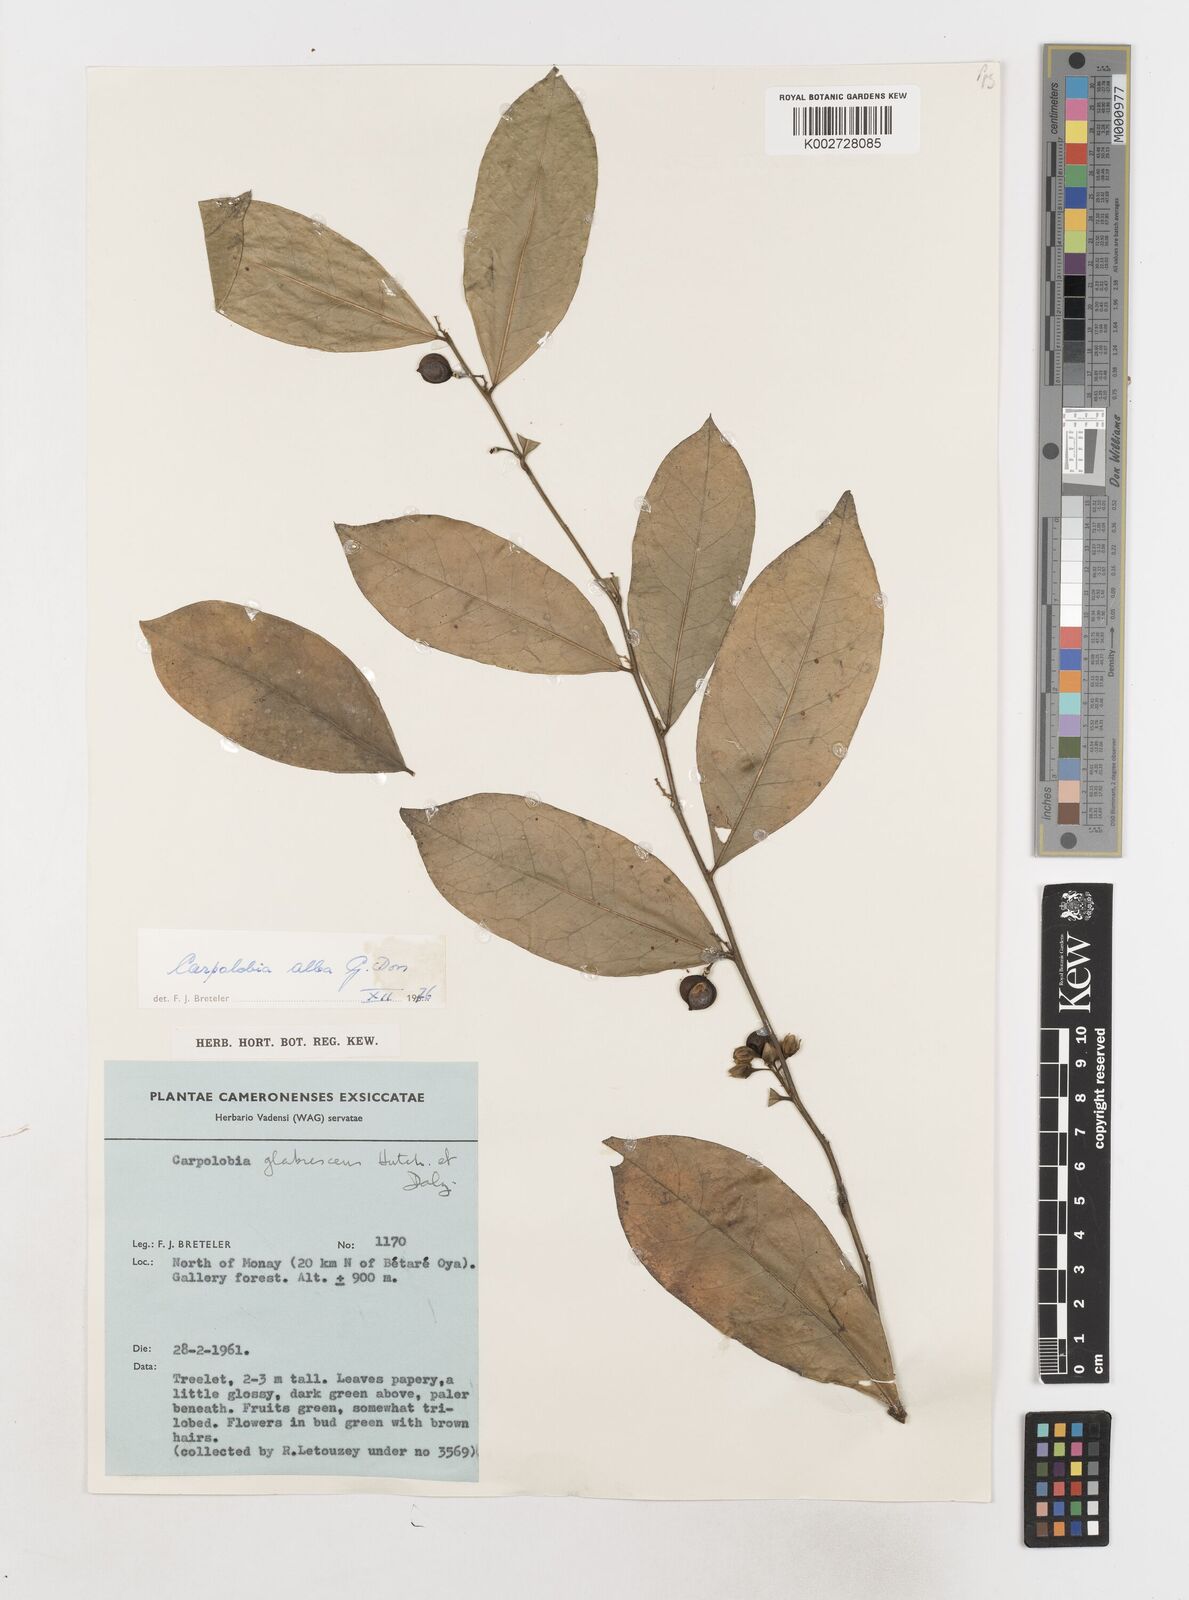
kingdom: Plantae
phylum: Tracheophyta
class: Magnoliopsida
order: Fabales
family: Polygalaceae
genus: Carpolobia
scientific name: Carpolobia alba
